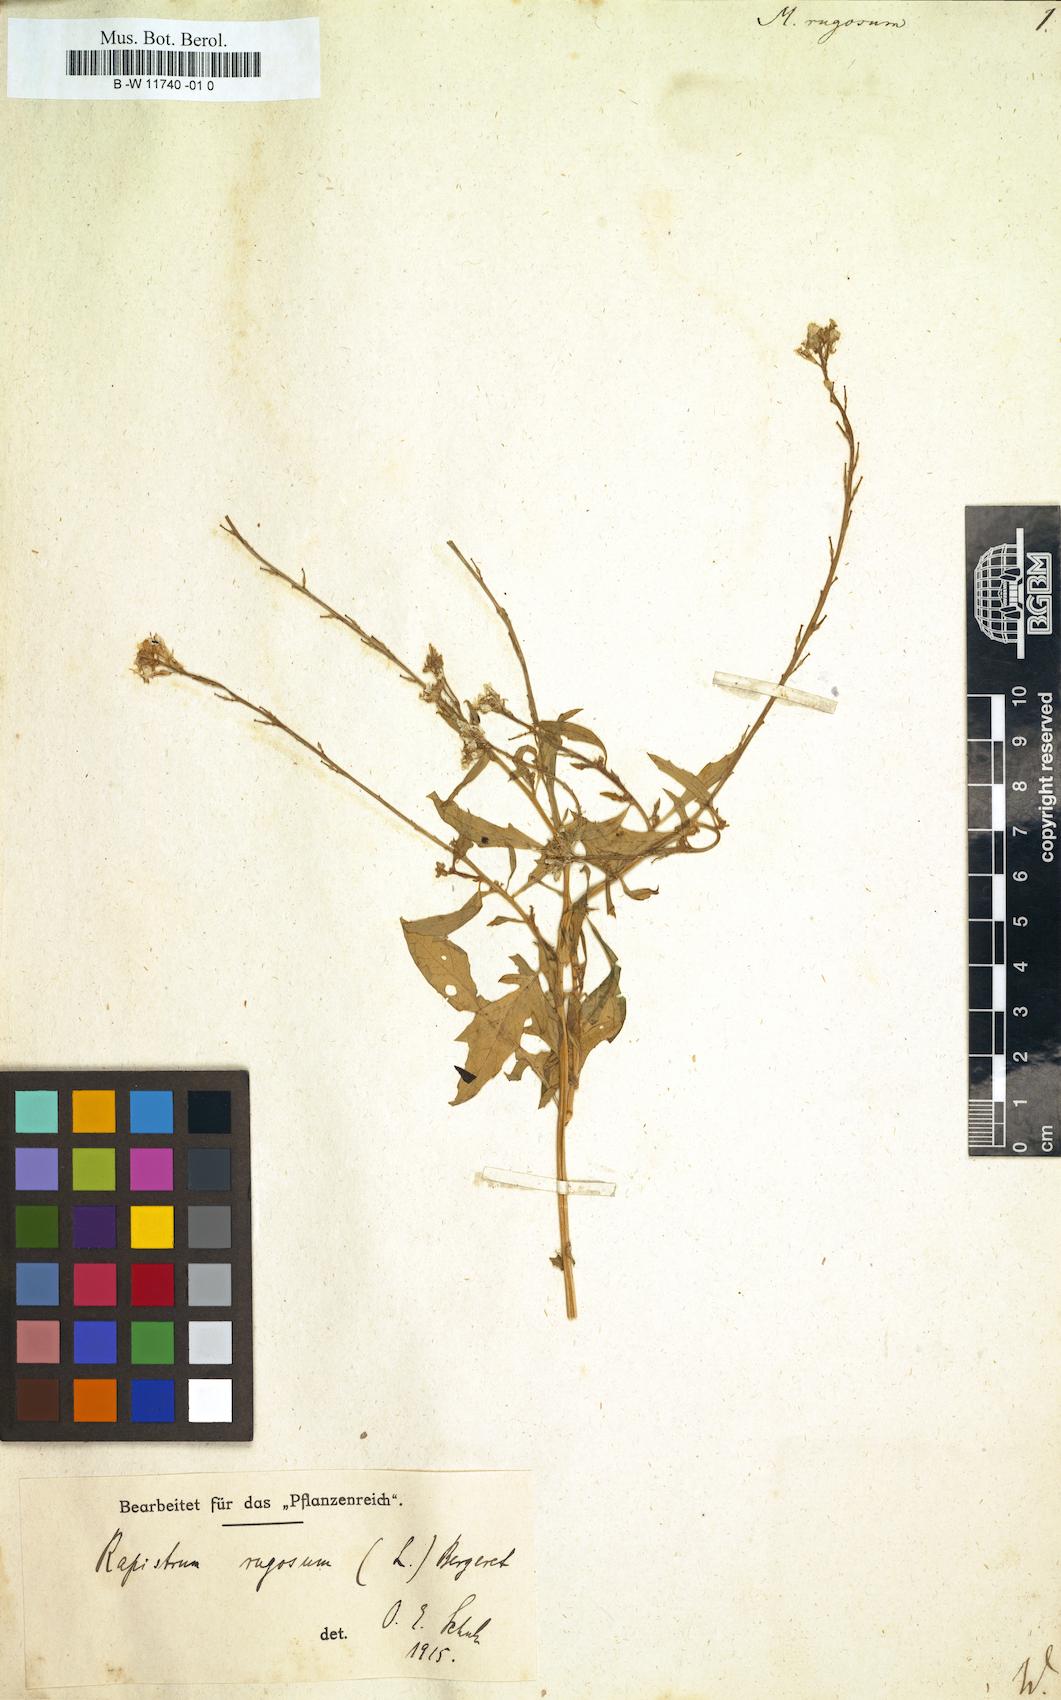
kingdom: Plantae
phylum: Tracheophyta
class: Magnoliopsida
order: Brassicales
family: Brassicaceae
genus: Myagrum
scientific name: Myagrum rugosum
